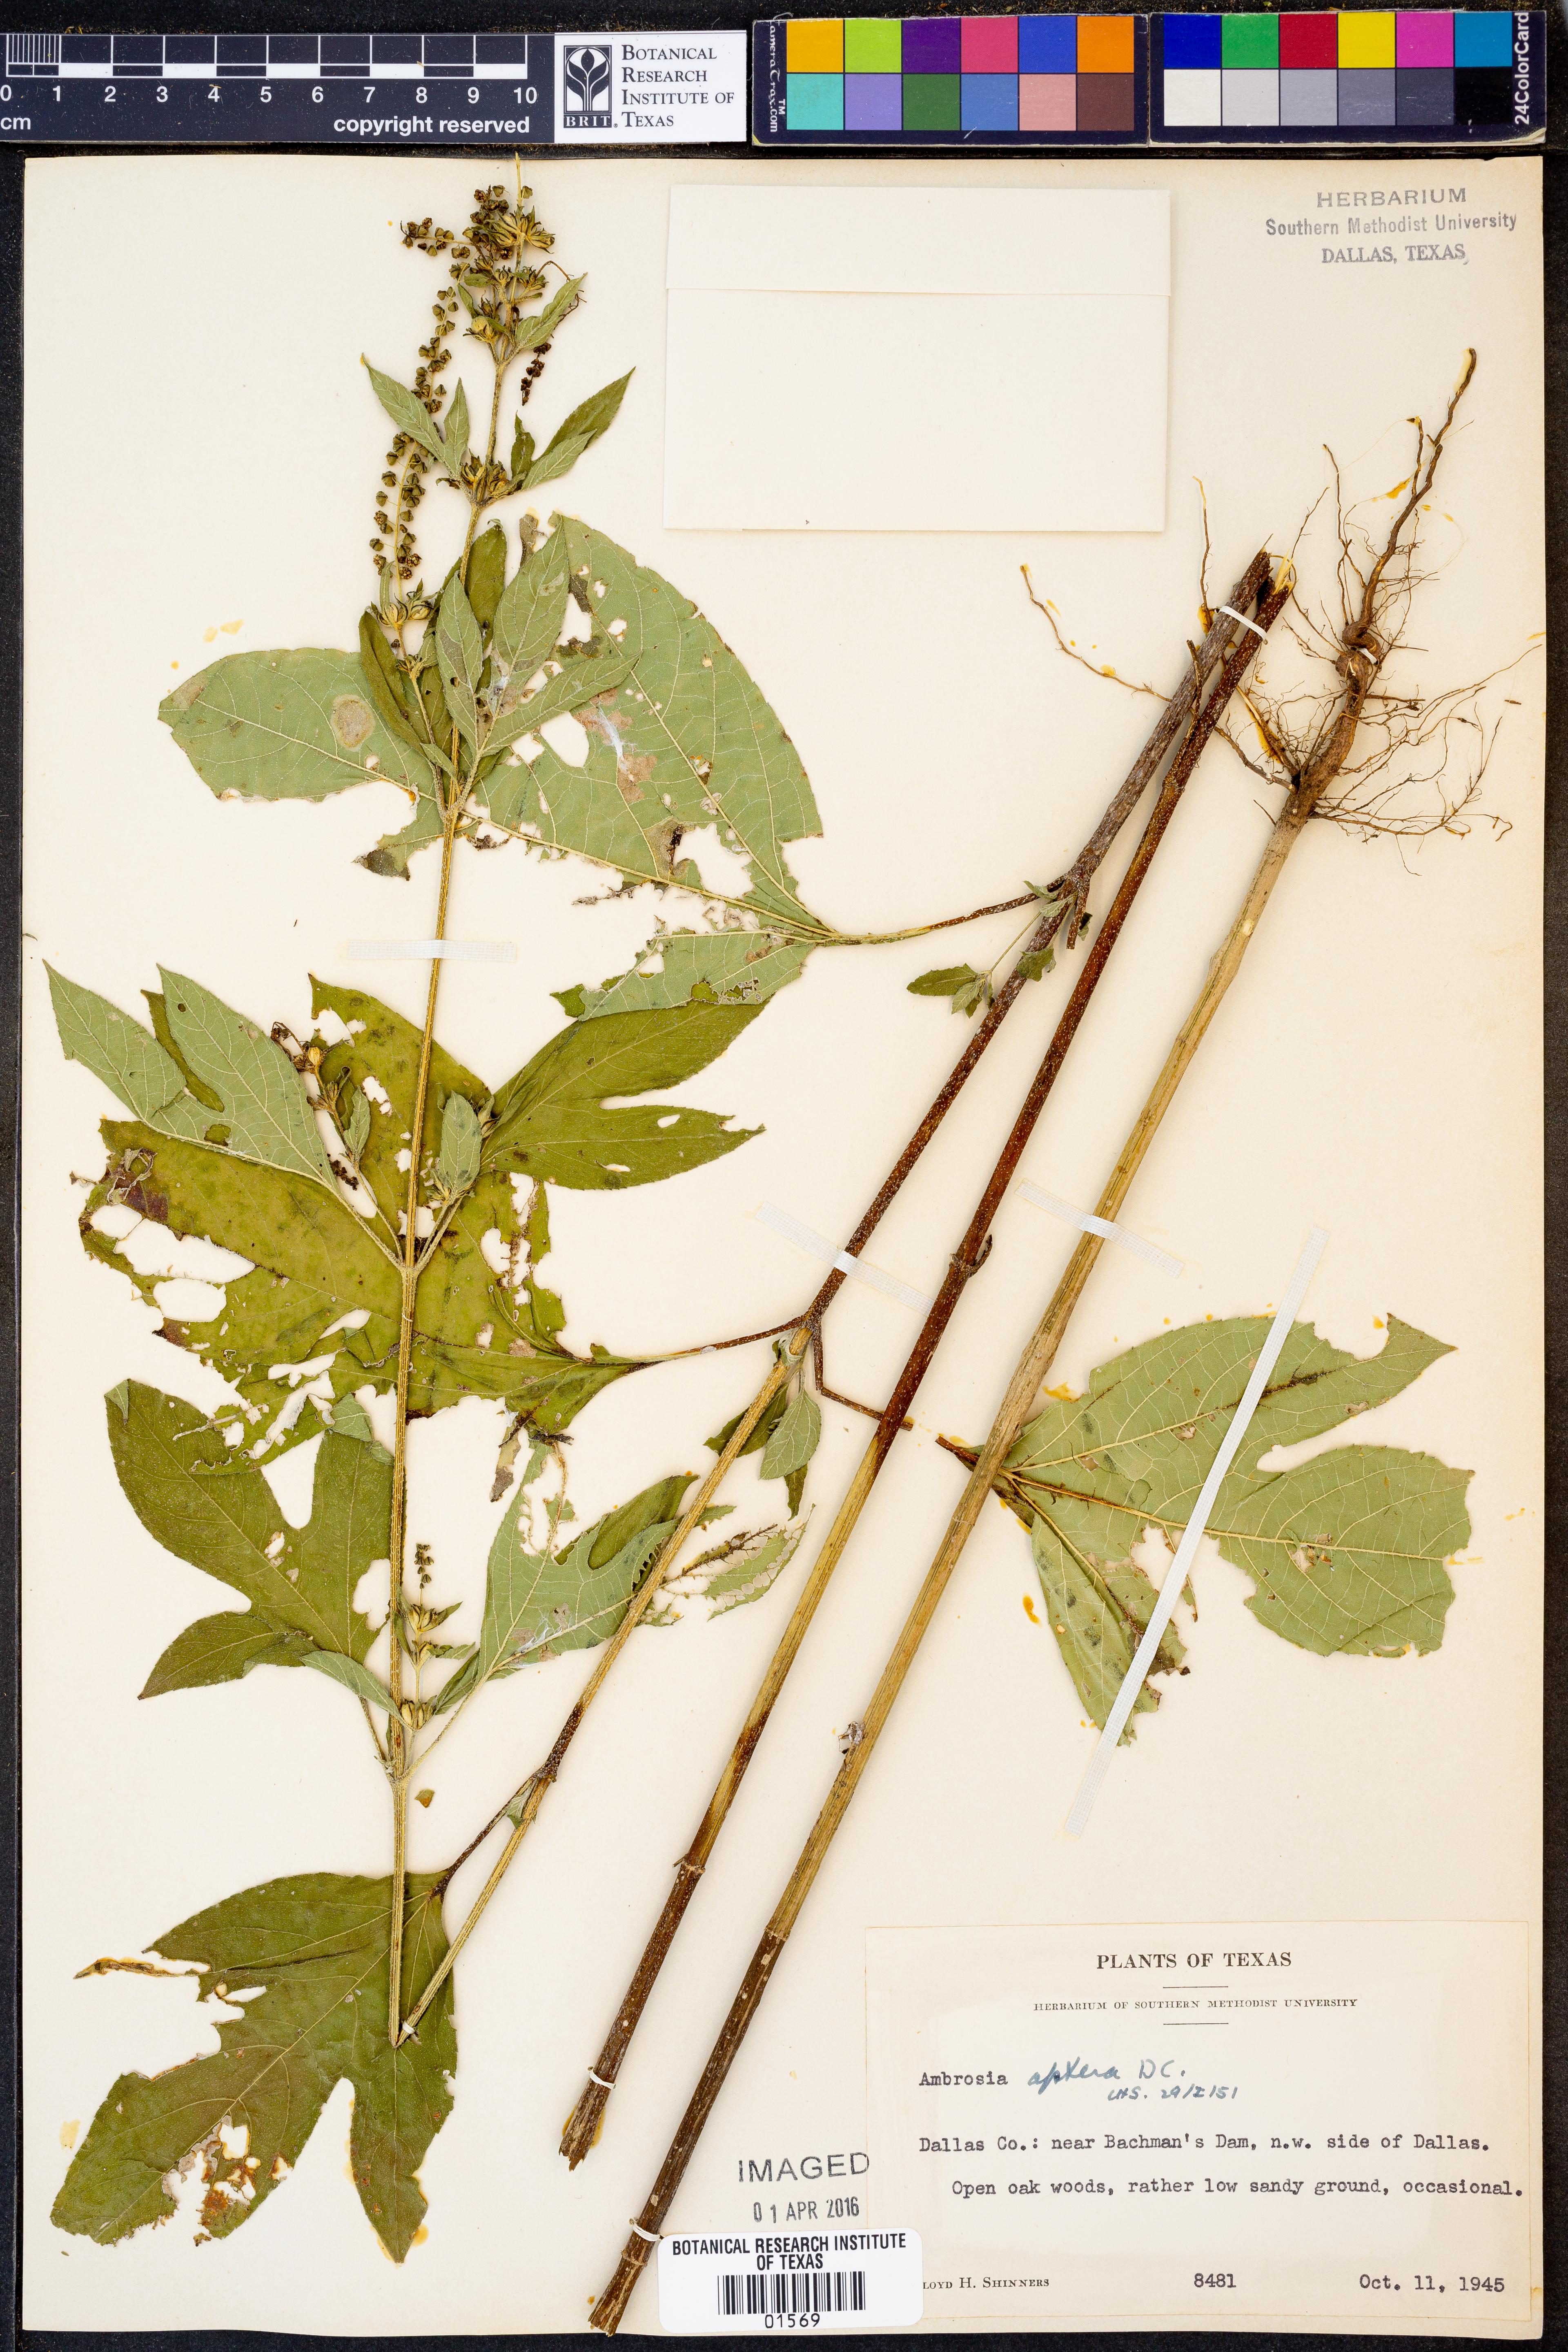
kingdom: Plantae
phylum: Tracheophyta
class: Magnoliopsida
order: Asterales
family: Asteraceae
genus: Ambrosia
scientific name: Ambrosia trifida
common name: Giant ragweed
